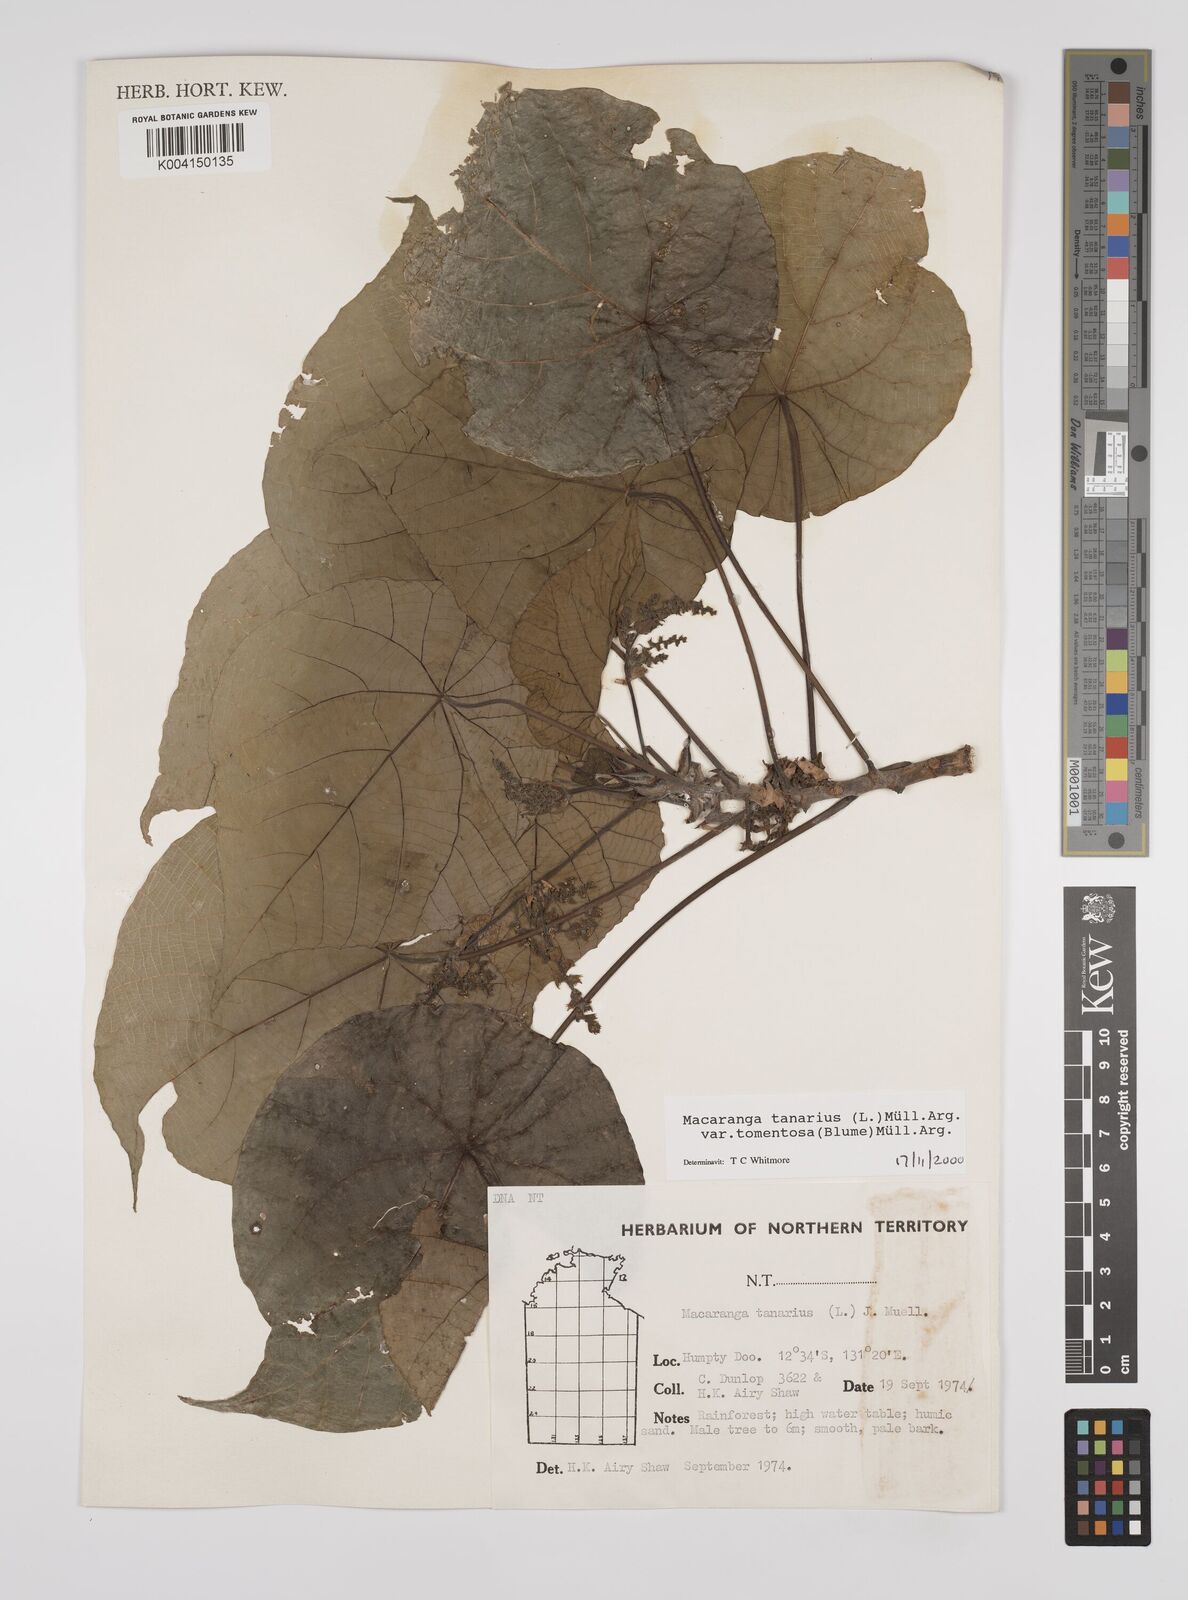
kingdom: Plantae
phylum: Tracheophyta
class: Magnoliopsida
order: Malpighiales
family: Euphorbiaceae
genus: Macaranga
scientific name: Macaranga tanarius
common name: Parasol leaf tree
